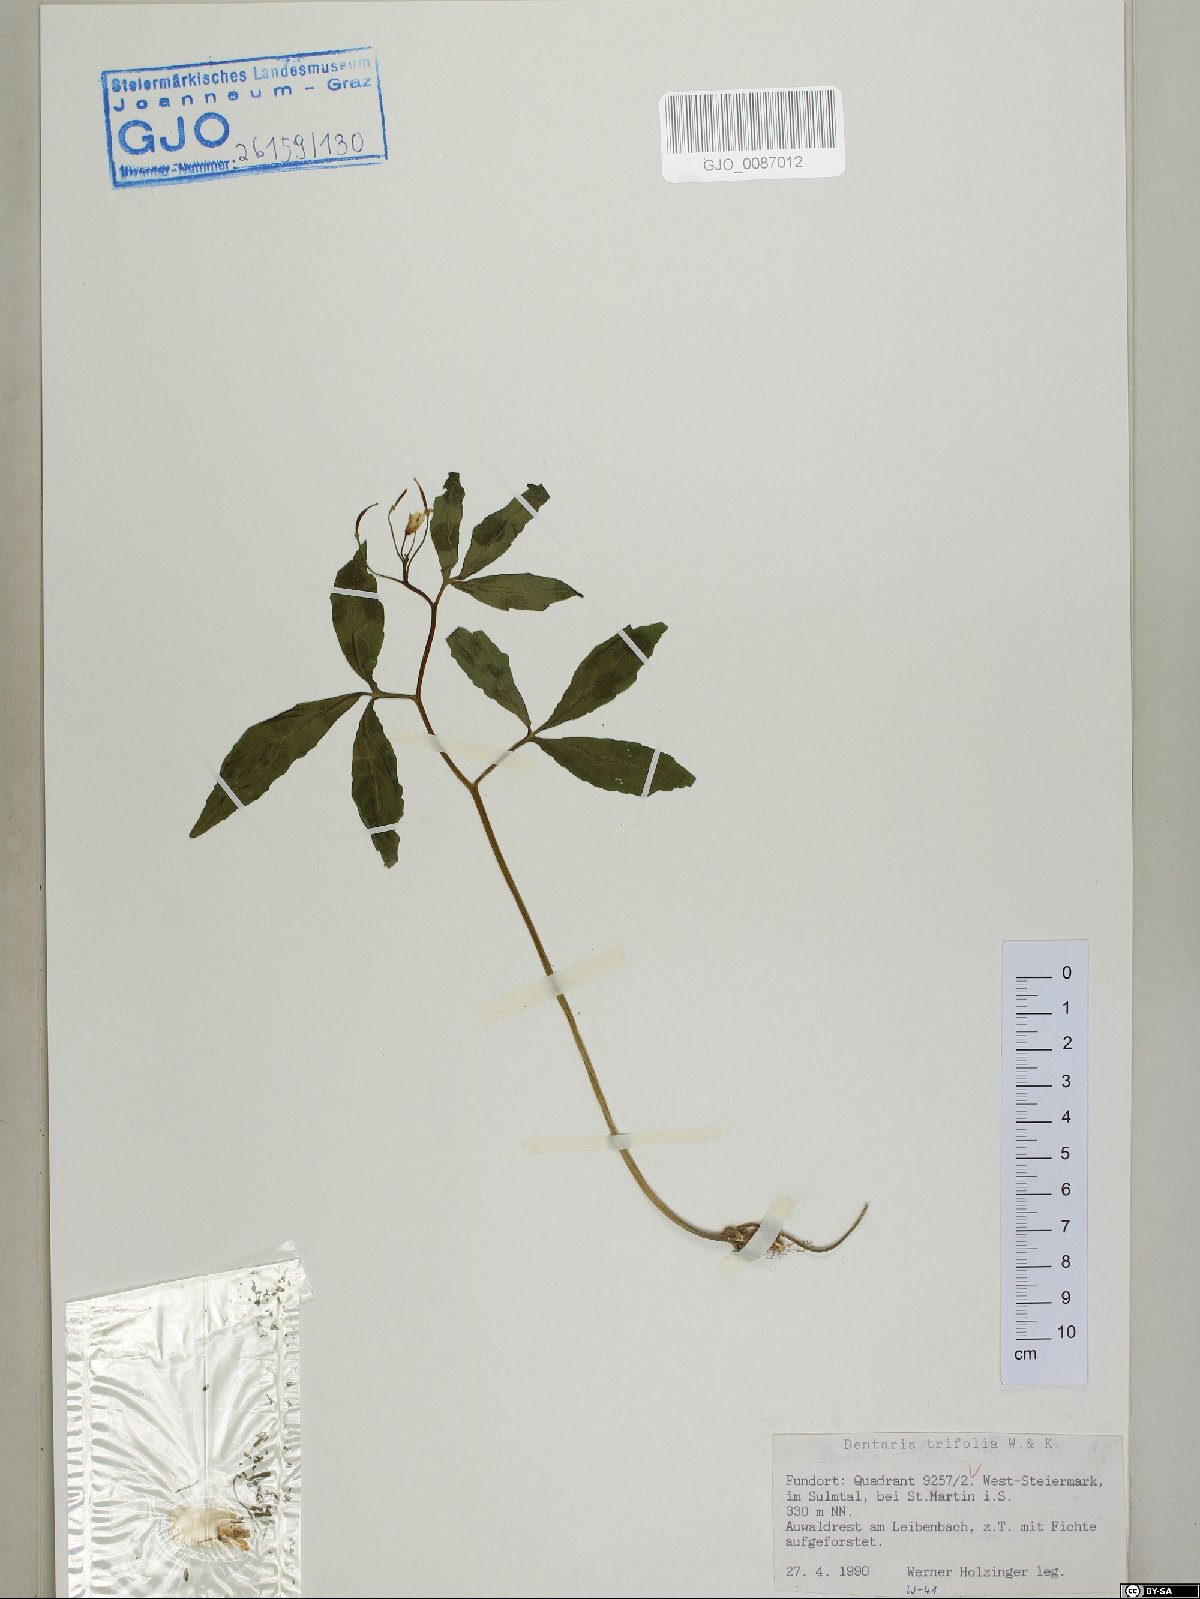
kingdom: Plantae
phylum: Tracheophyta
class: Magnoliopsida
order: Brassicales
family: Brassicaceae
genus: Cardamine
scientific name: Cardamine waldsteinii
